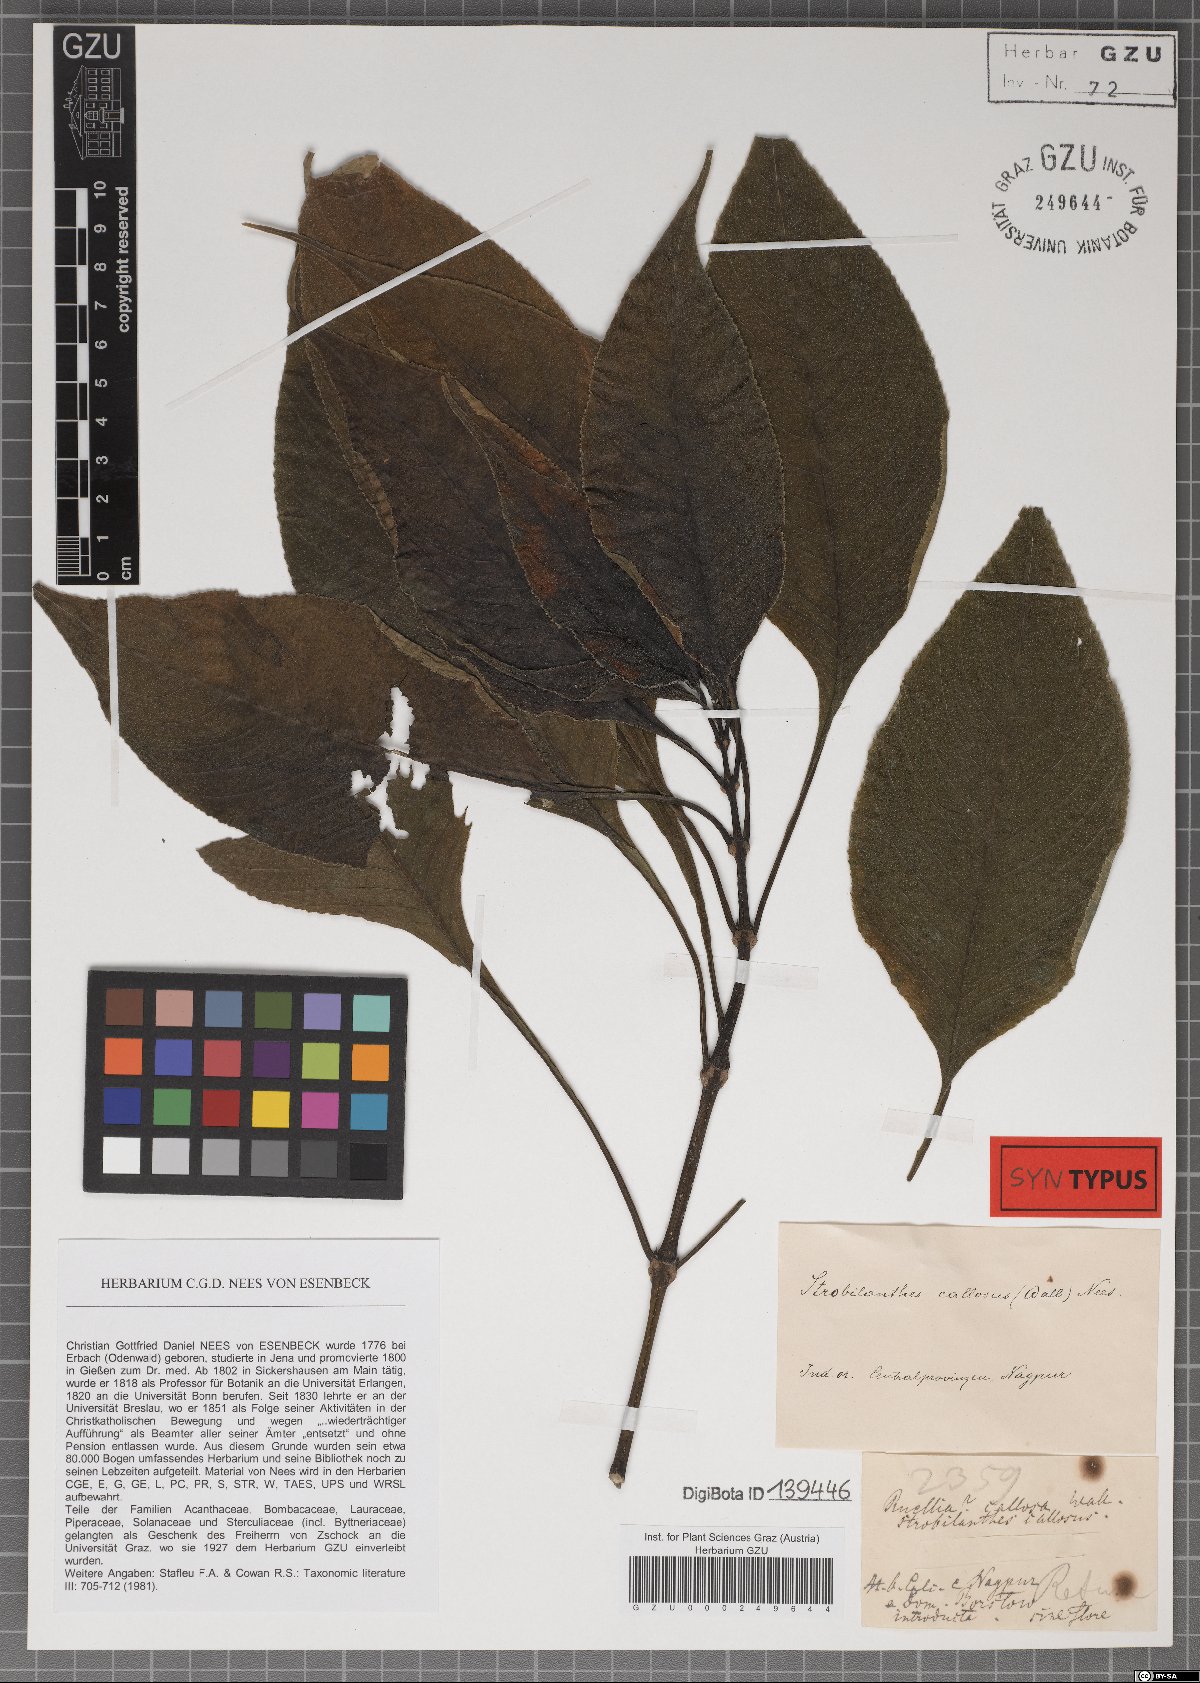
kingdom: Plantae
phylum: Tracheophyta
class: Magnoliopsida
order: Lamiales
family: Acanthaceae
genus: Strobilanthes
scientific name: Strobilanthes callosa
